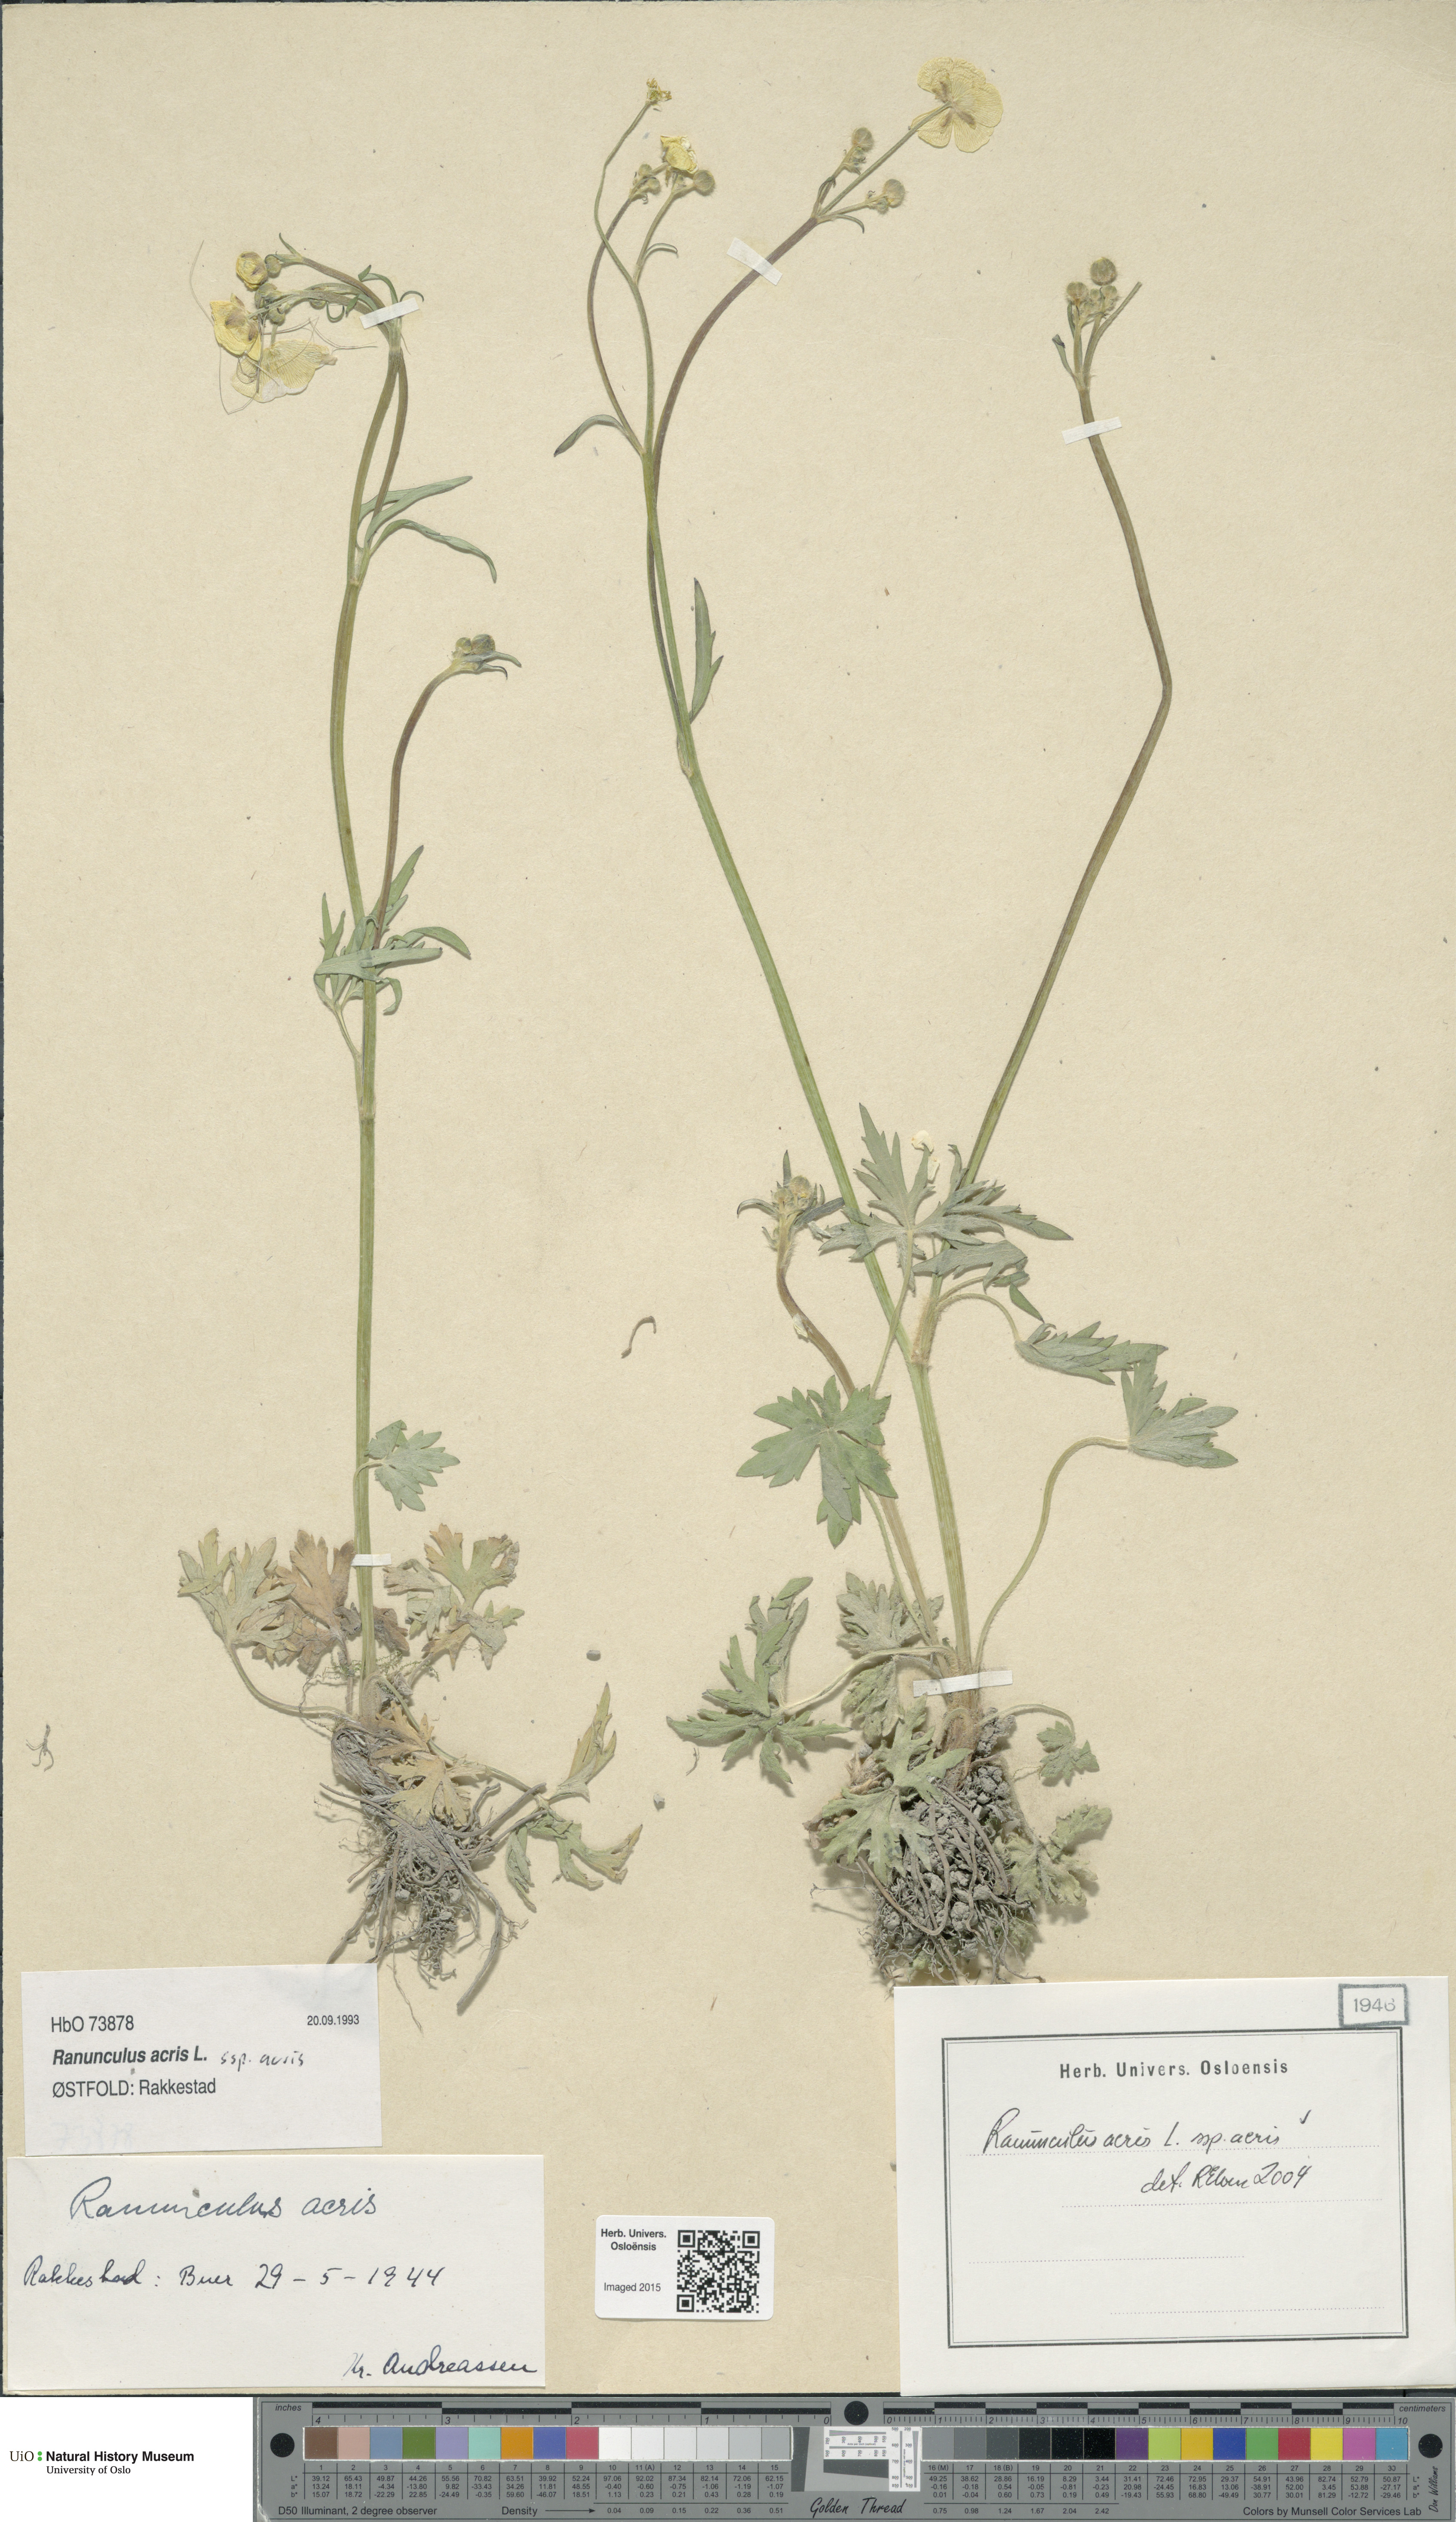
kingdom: Plantae
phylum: Tracheophyta
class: Magnoliopsida
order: Ranunculales
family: Ranunculaceae
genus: Ranunculus
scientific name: Ranunculus acris
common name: Meadow buttercup
